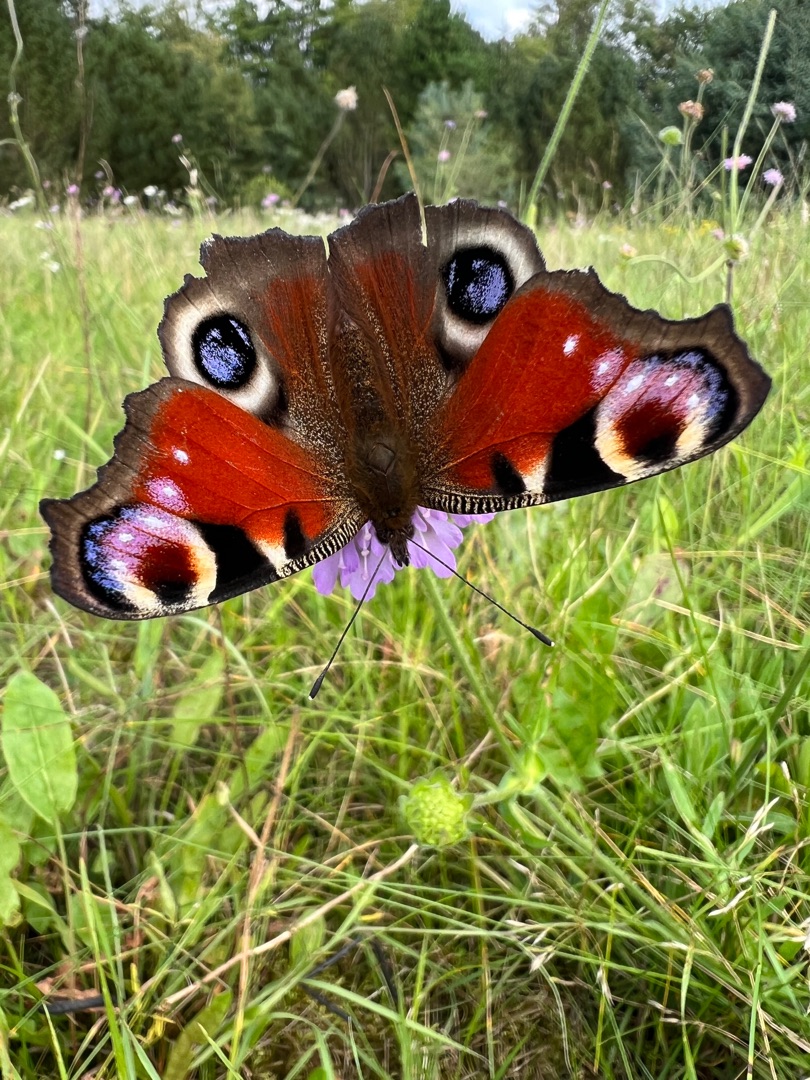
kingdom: Animalia
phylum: Arthropoda
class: Insecta
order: Lepidoptera
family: Nymphalidae
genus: Aglais
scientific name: Aglais io
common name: Dagpåfugleøje
